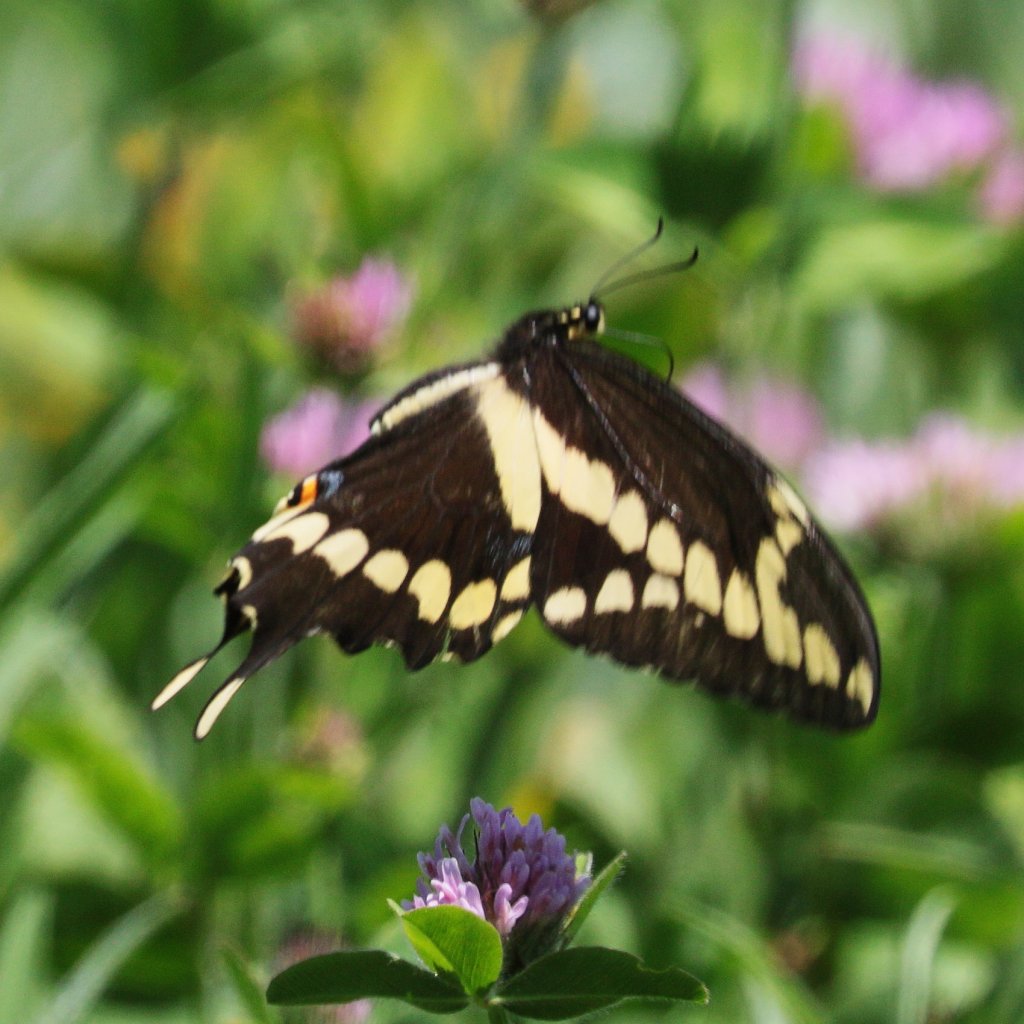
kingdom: Animalia
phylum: Arthropoda
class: Insecta
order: Lepidoptera
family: Papilionidae
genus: Papilio
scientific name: Papilio cresphontes
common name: Eastern Giant Swallowtail
